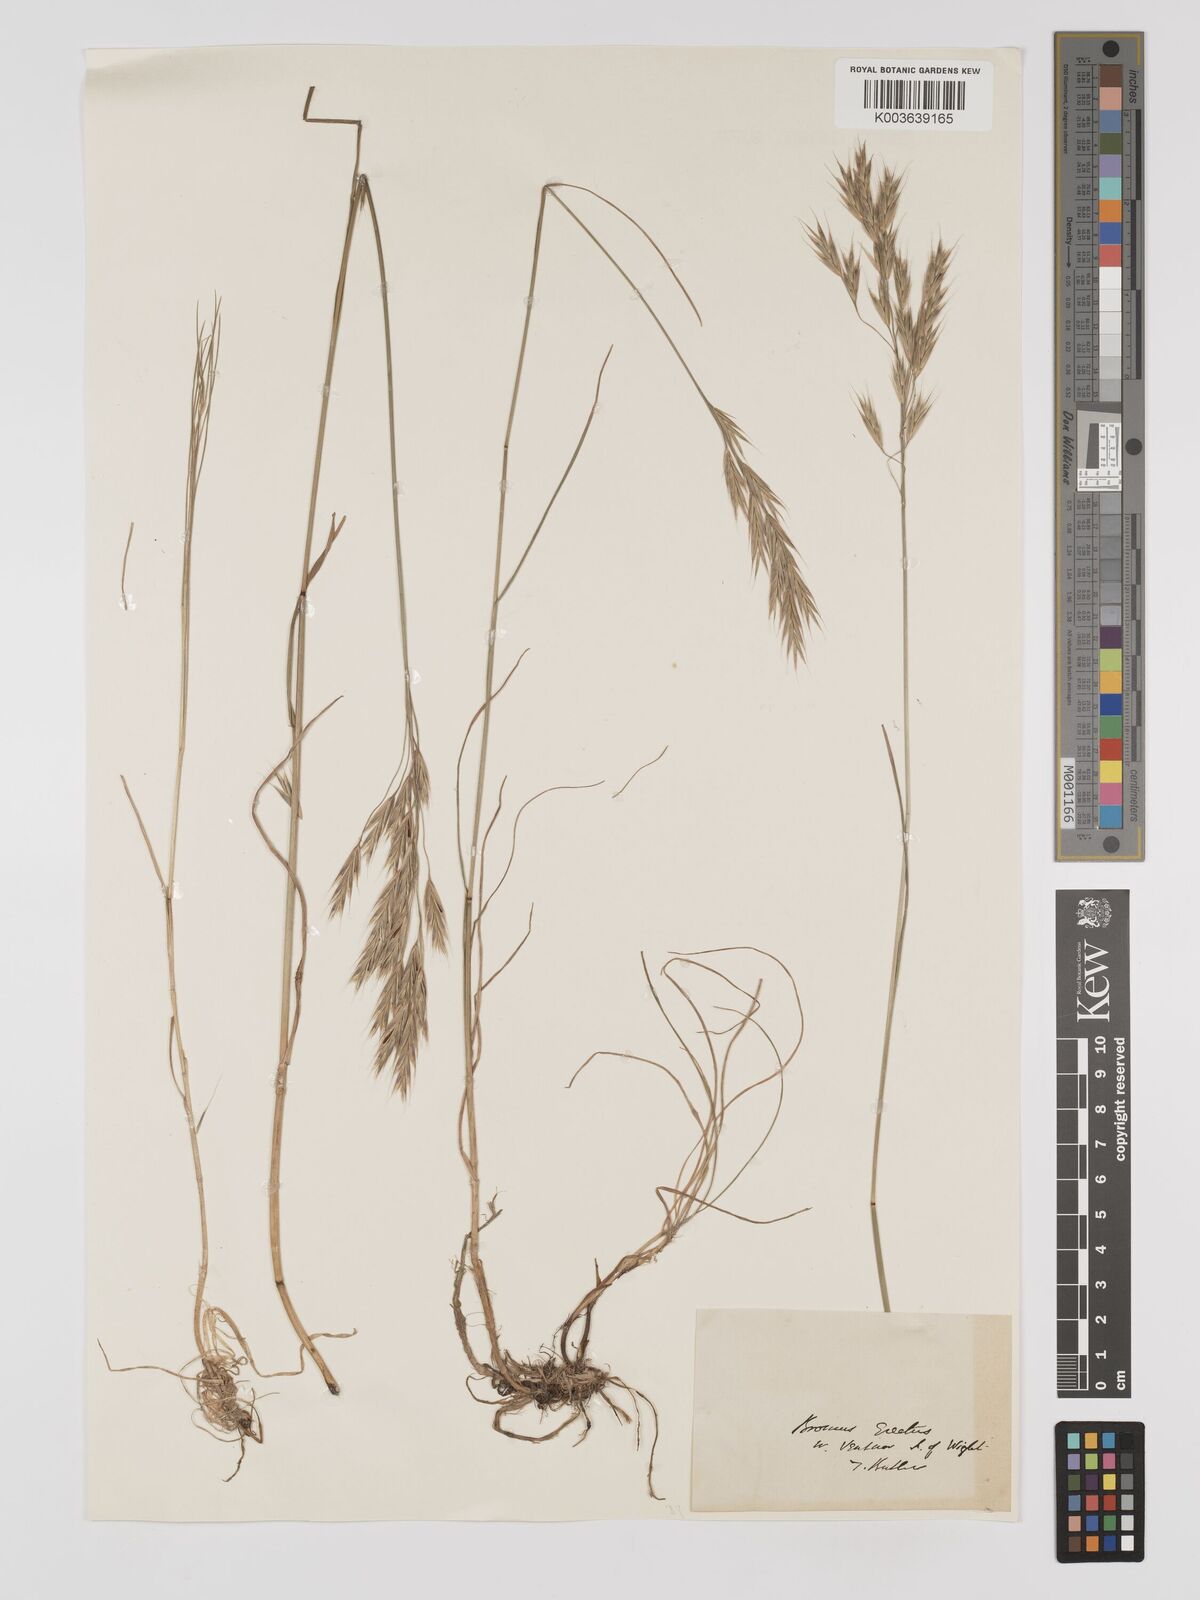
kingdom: Plantae
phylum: Tracheophyta
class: Liliopsida
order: Poales
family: Poaceae
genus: Bromus
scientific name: Bromus erectus
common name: Erect brome
